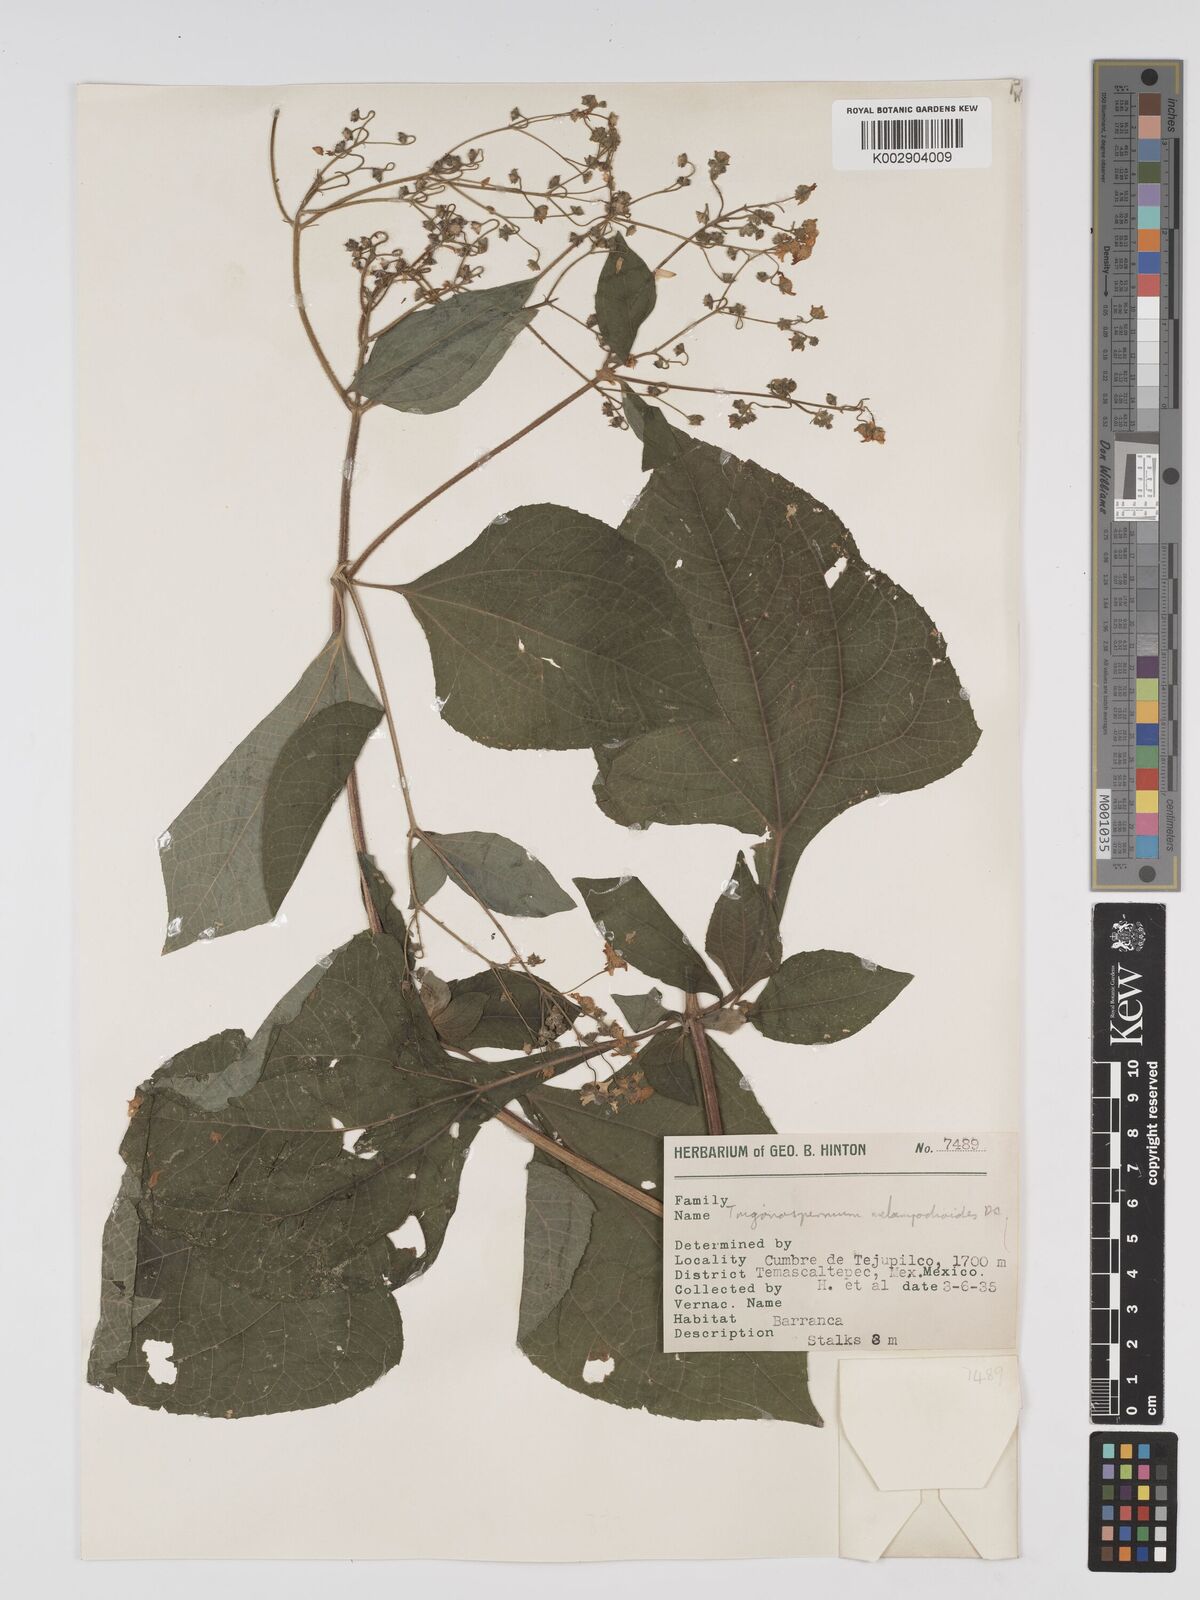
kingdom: Plantae
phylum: Tracheophyta
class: Magnoliopsida
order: Asterales
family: Asteraceae
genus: Trigonospermum
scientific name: Trigonospermum melampodioides
